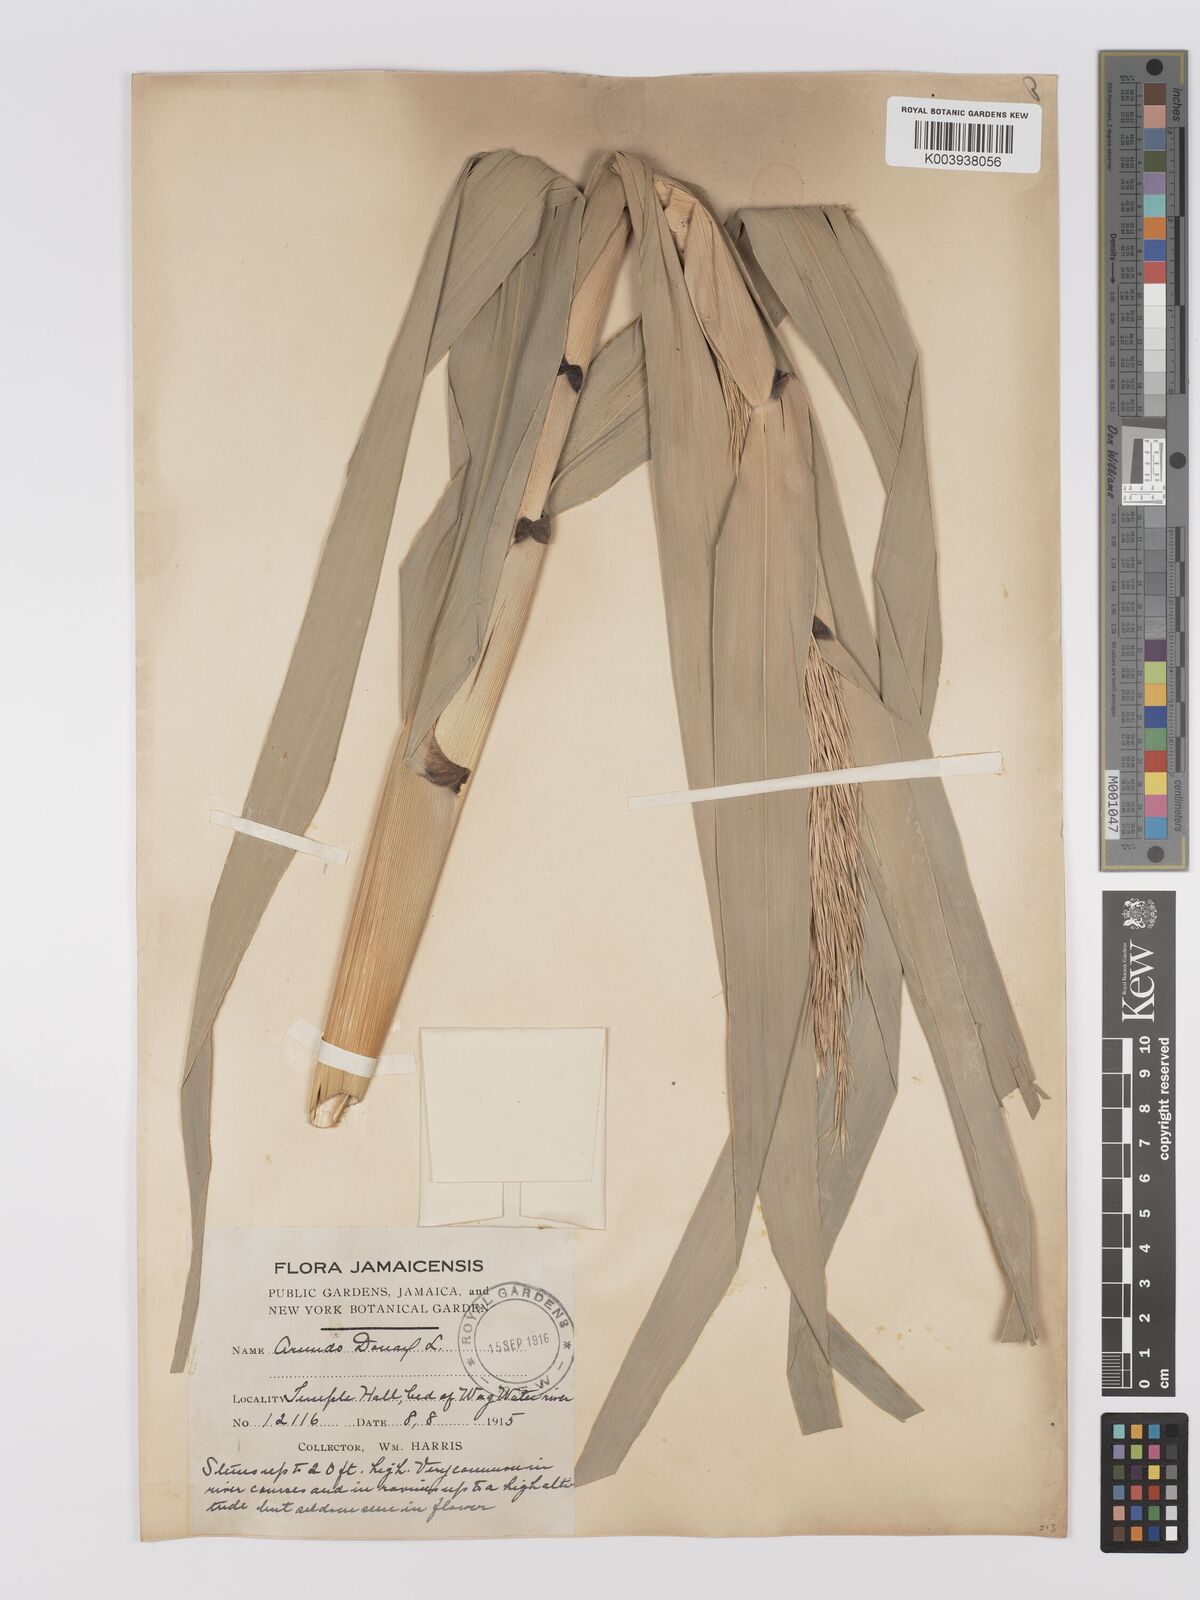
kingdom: Plantae
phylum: Tracheophyta
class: Liliopsida
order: Poales
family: Poaceae
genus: Arundo
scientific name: Arundo donax
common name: Giant reed
